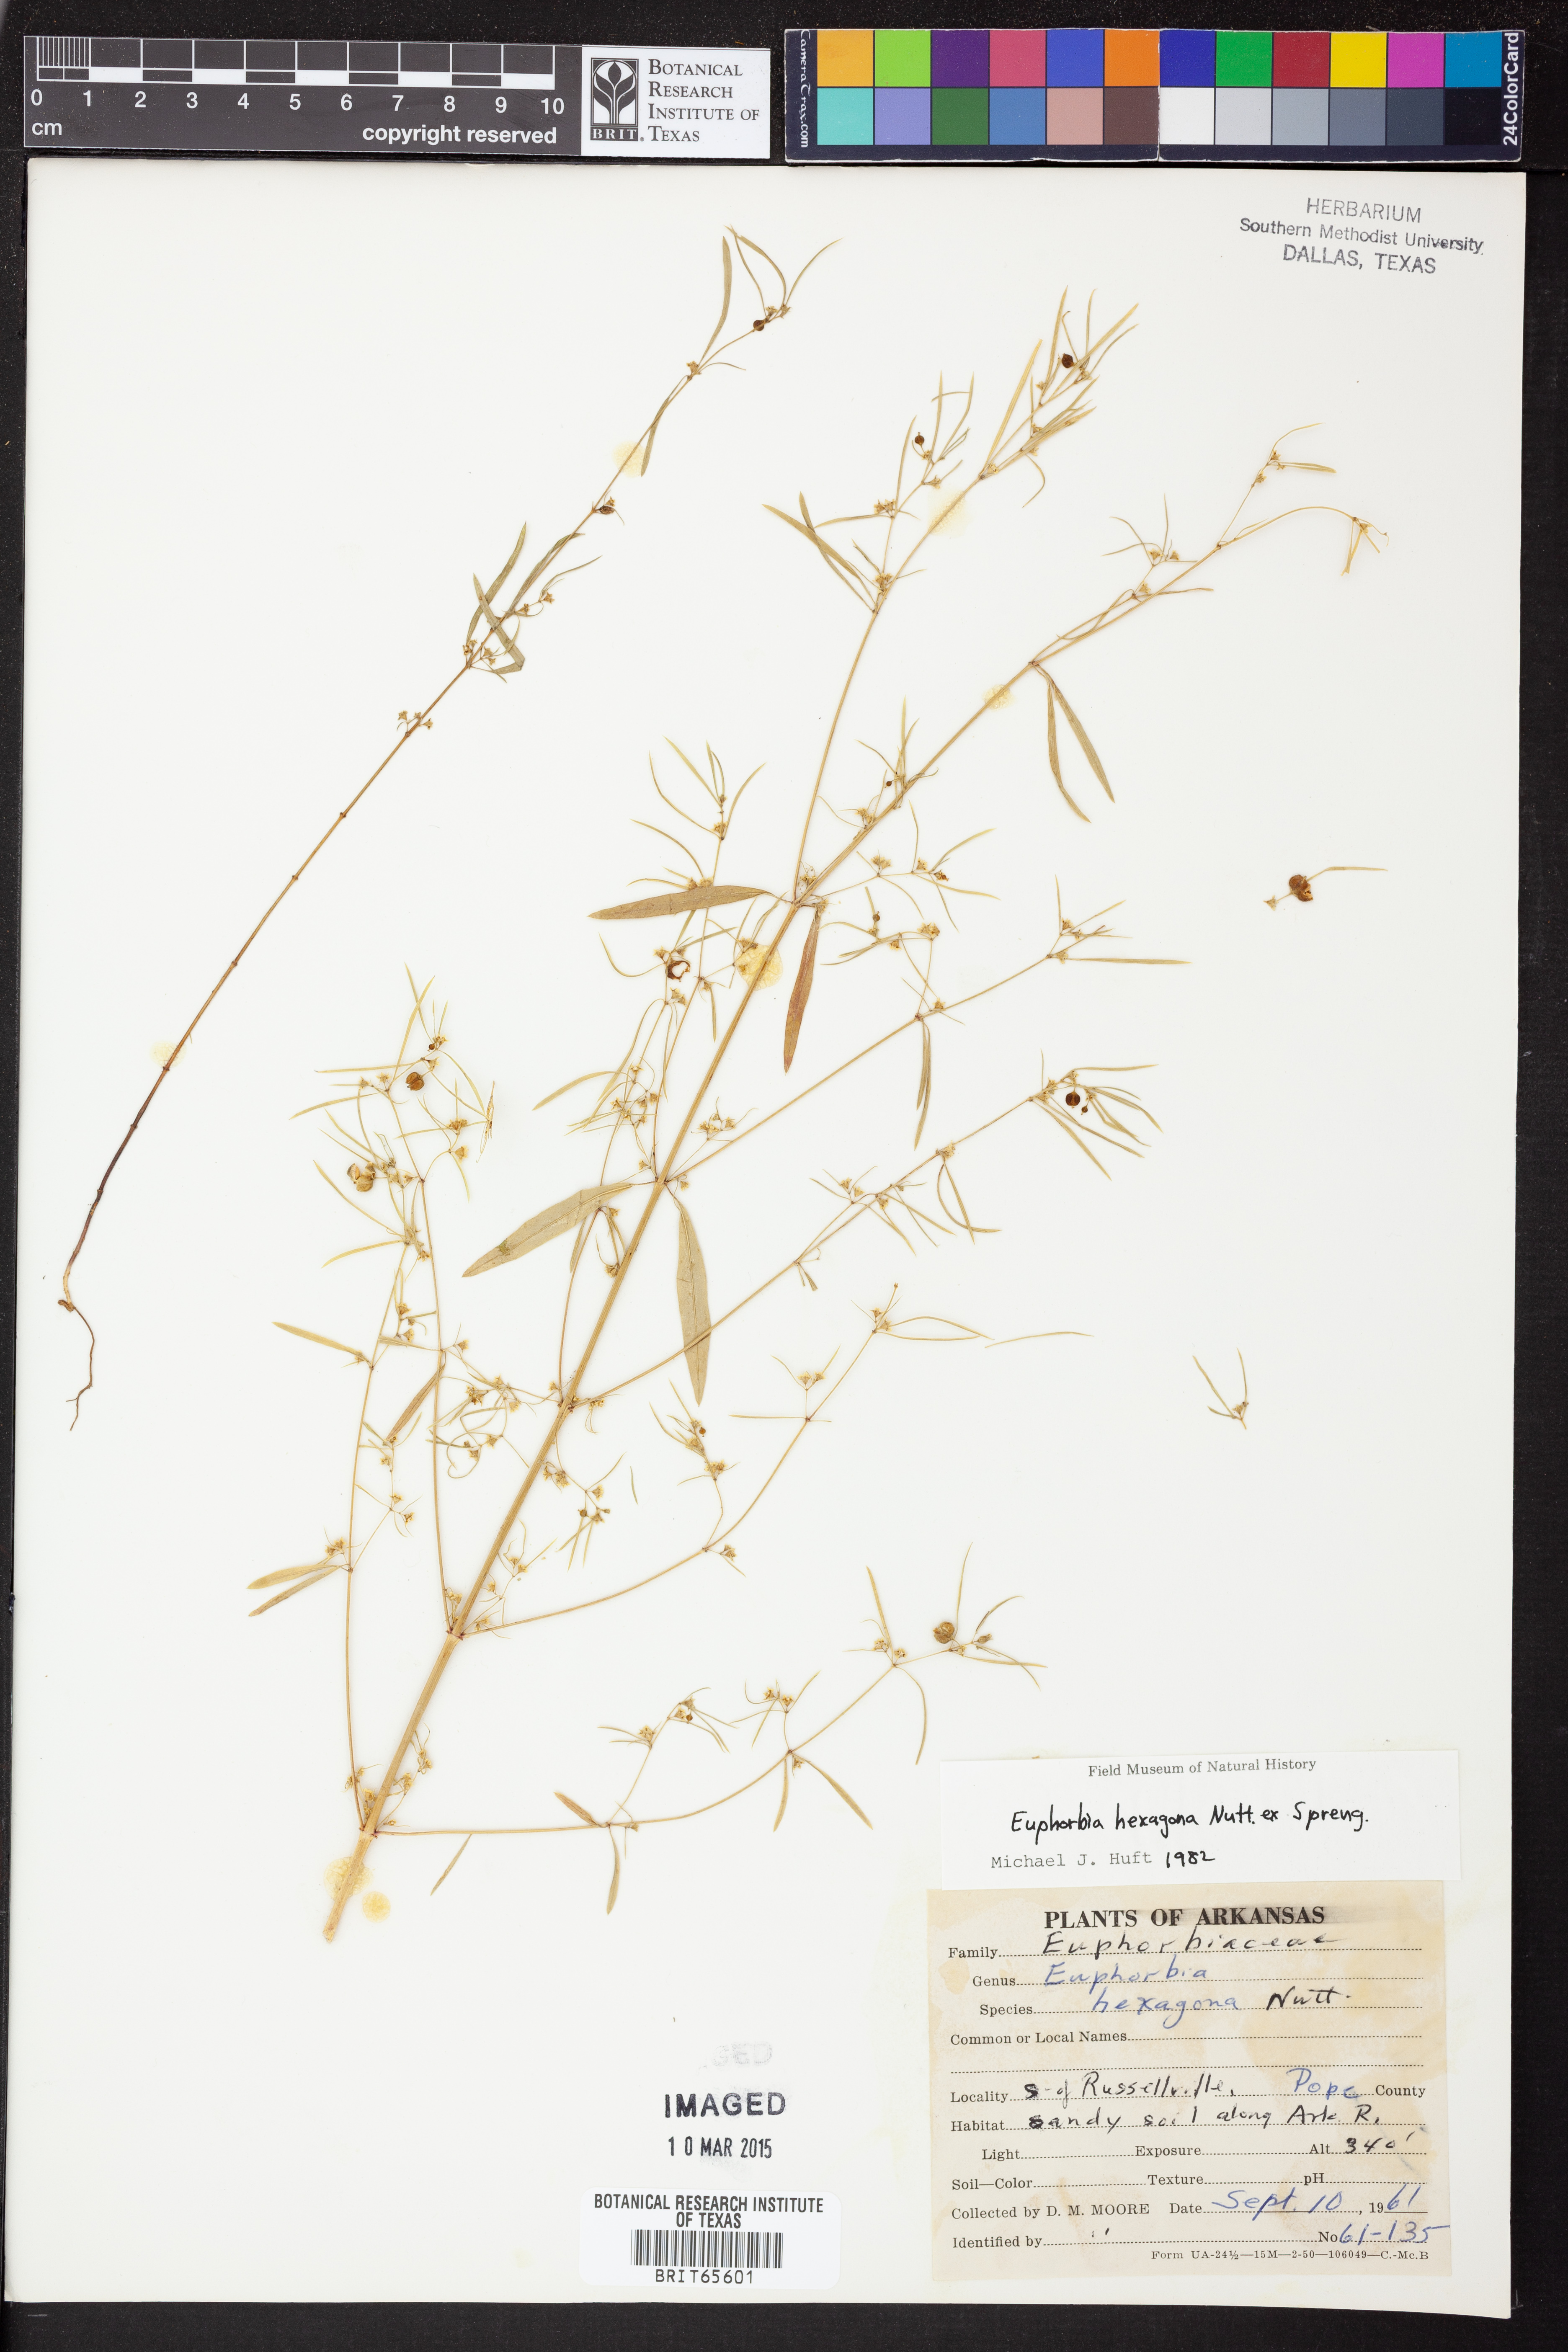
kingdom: Plantae
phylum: Tracheophyta
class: Magnoliopsida
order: Malpighiales
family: Euphorbiaceae
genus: Euphorbia
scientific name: Euphorbia hexagona
